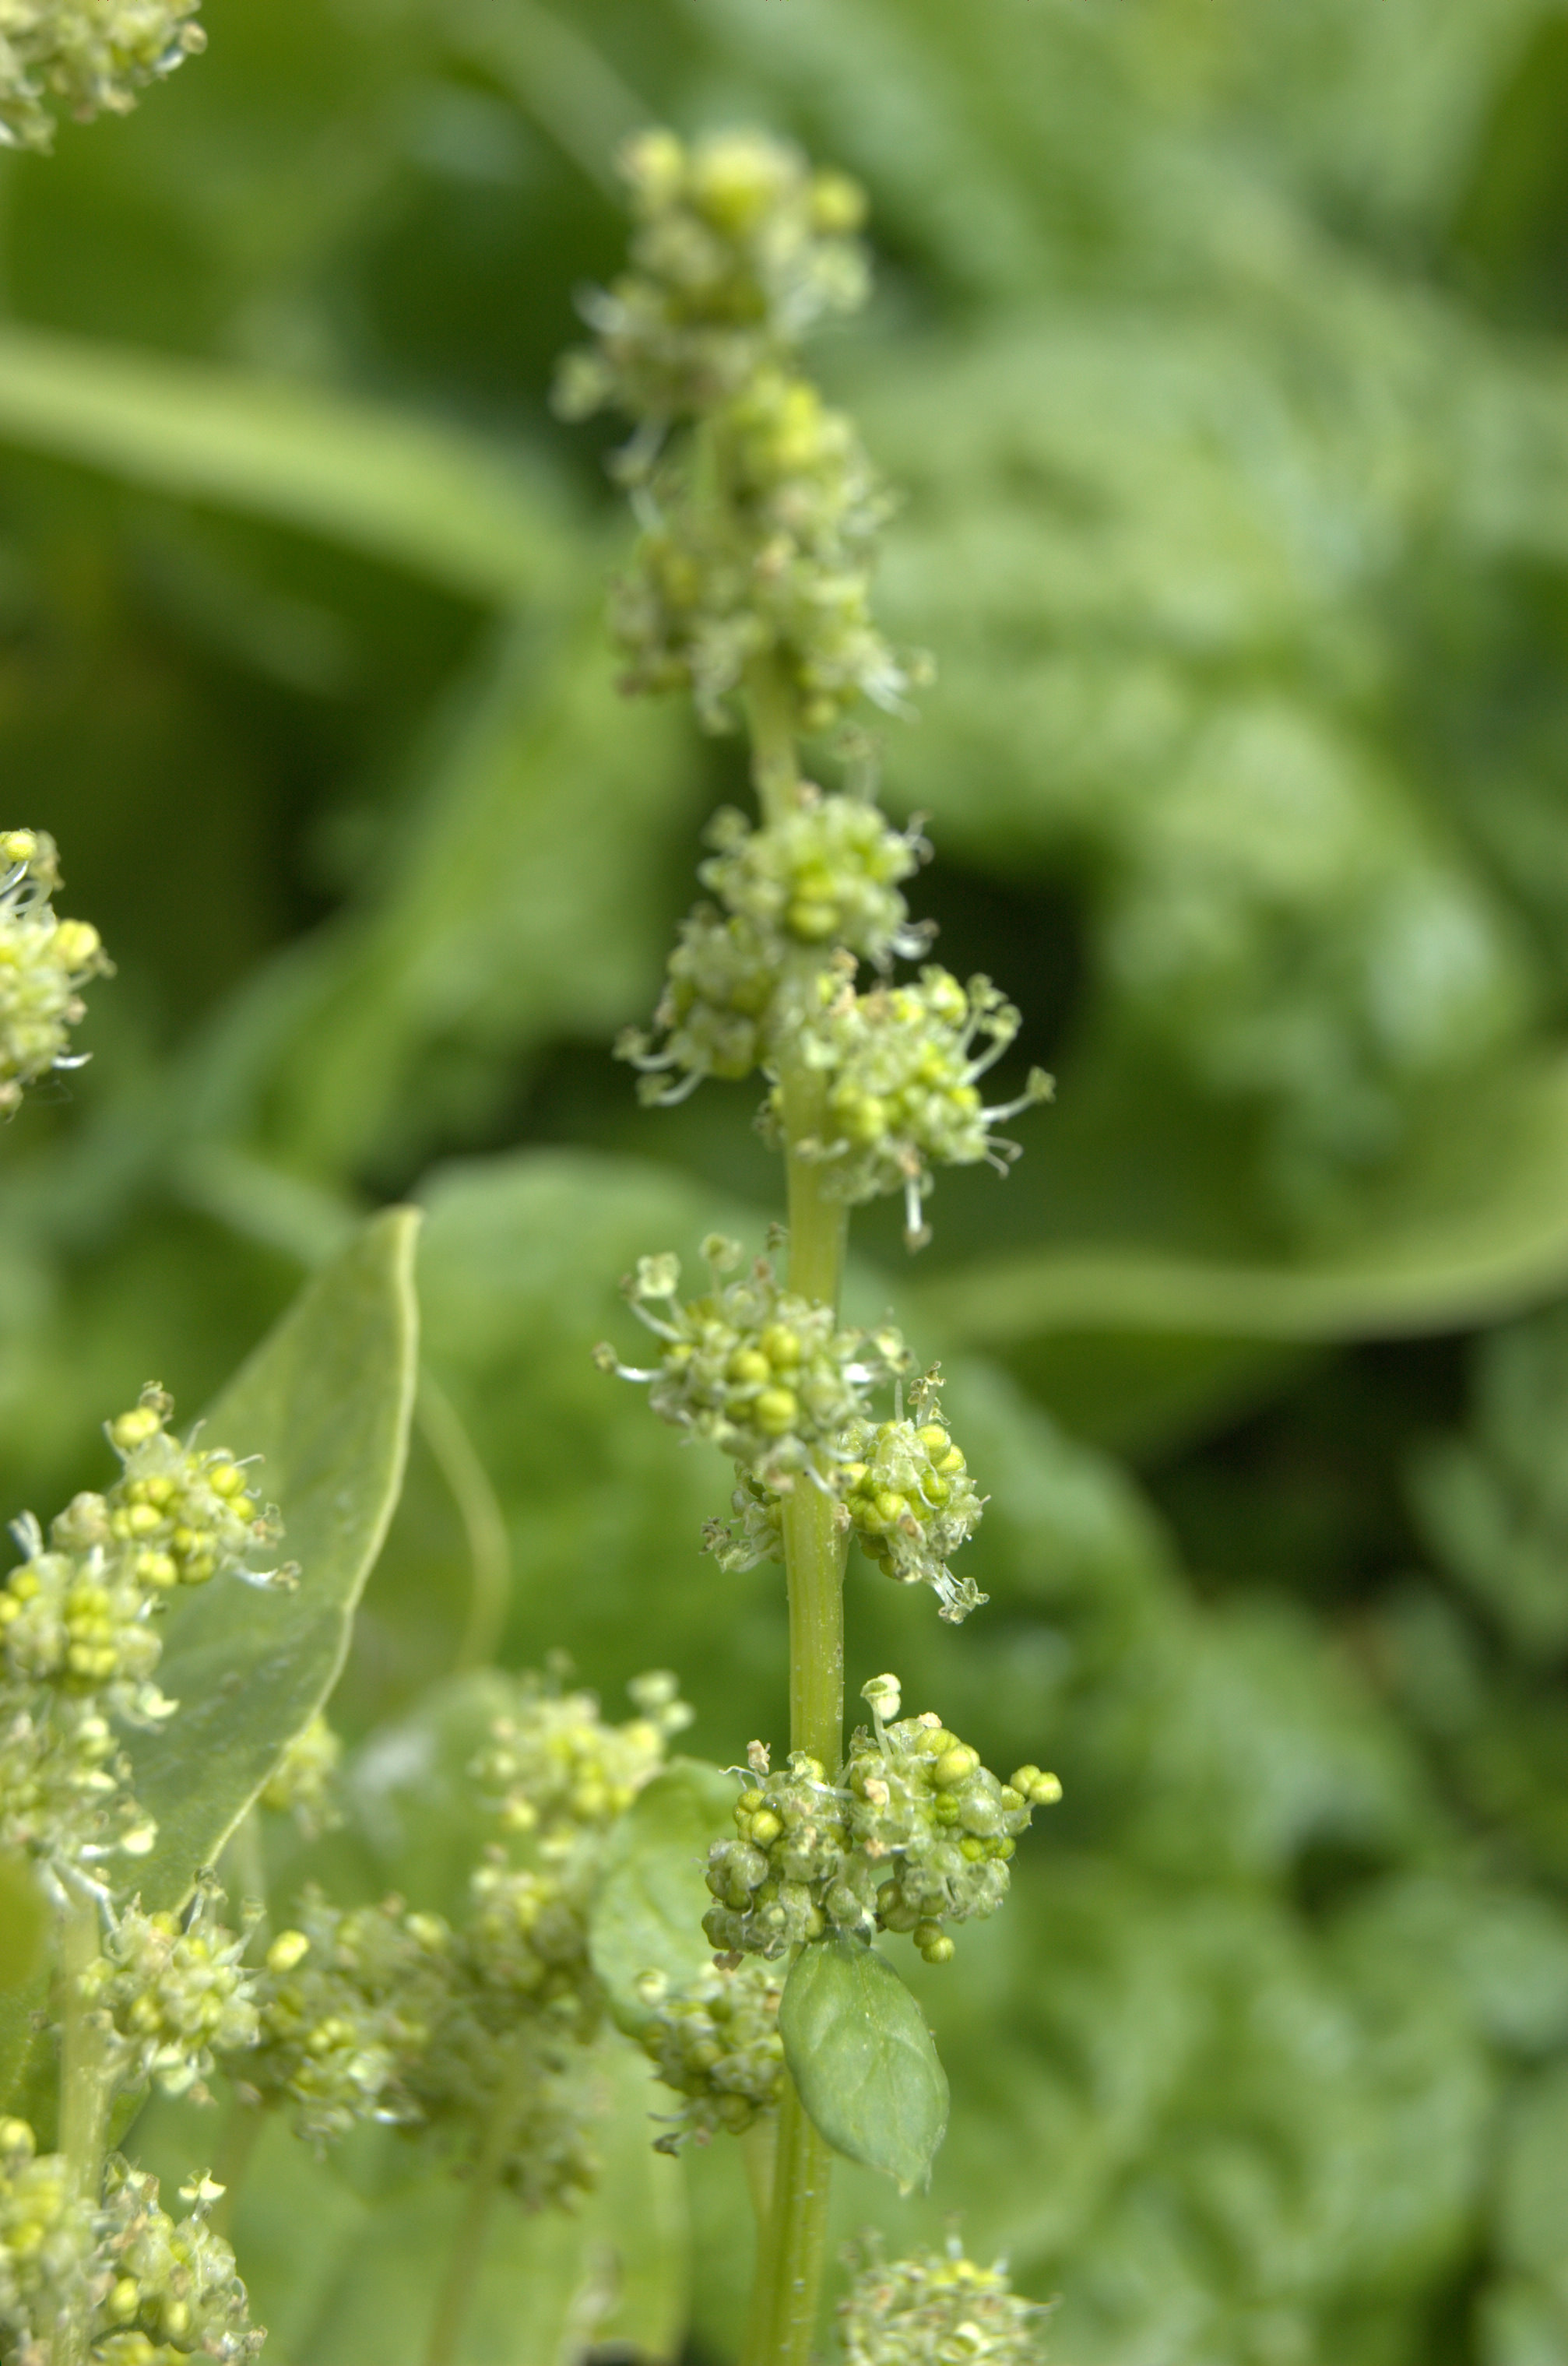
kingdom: Plantae
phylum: Tracheophyta
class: Magnoliopsida
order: Caryophyllales
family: Amaranthaceae
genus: Spinacia
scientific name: Spinacia oleracea
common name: Spinach
